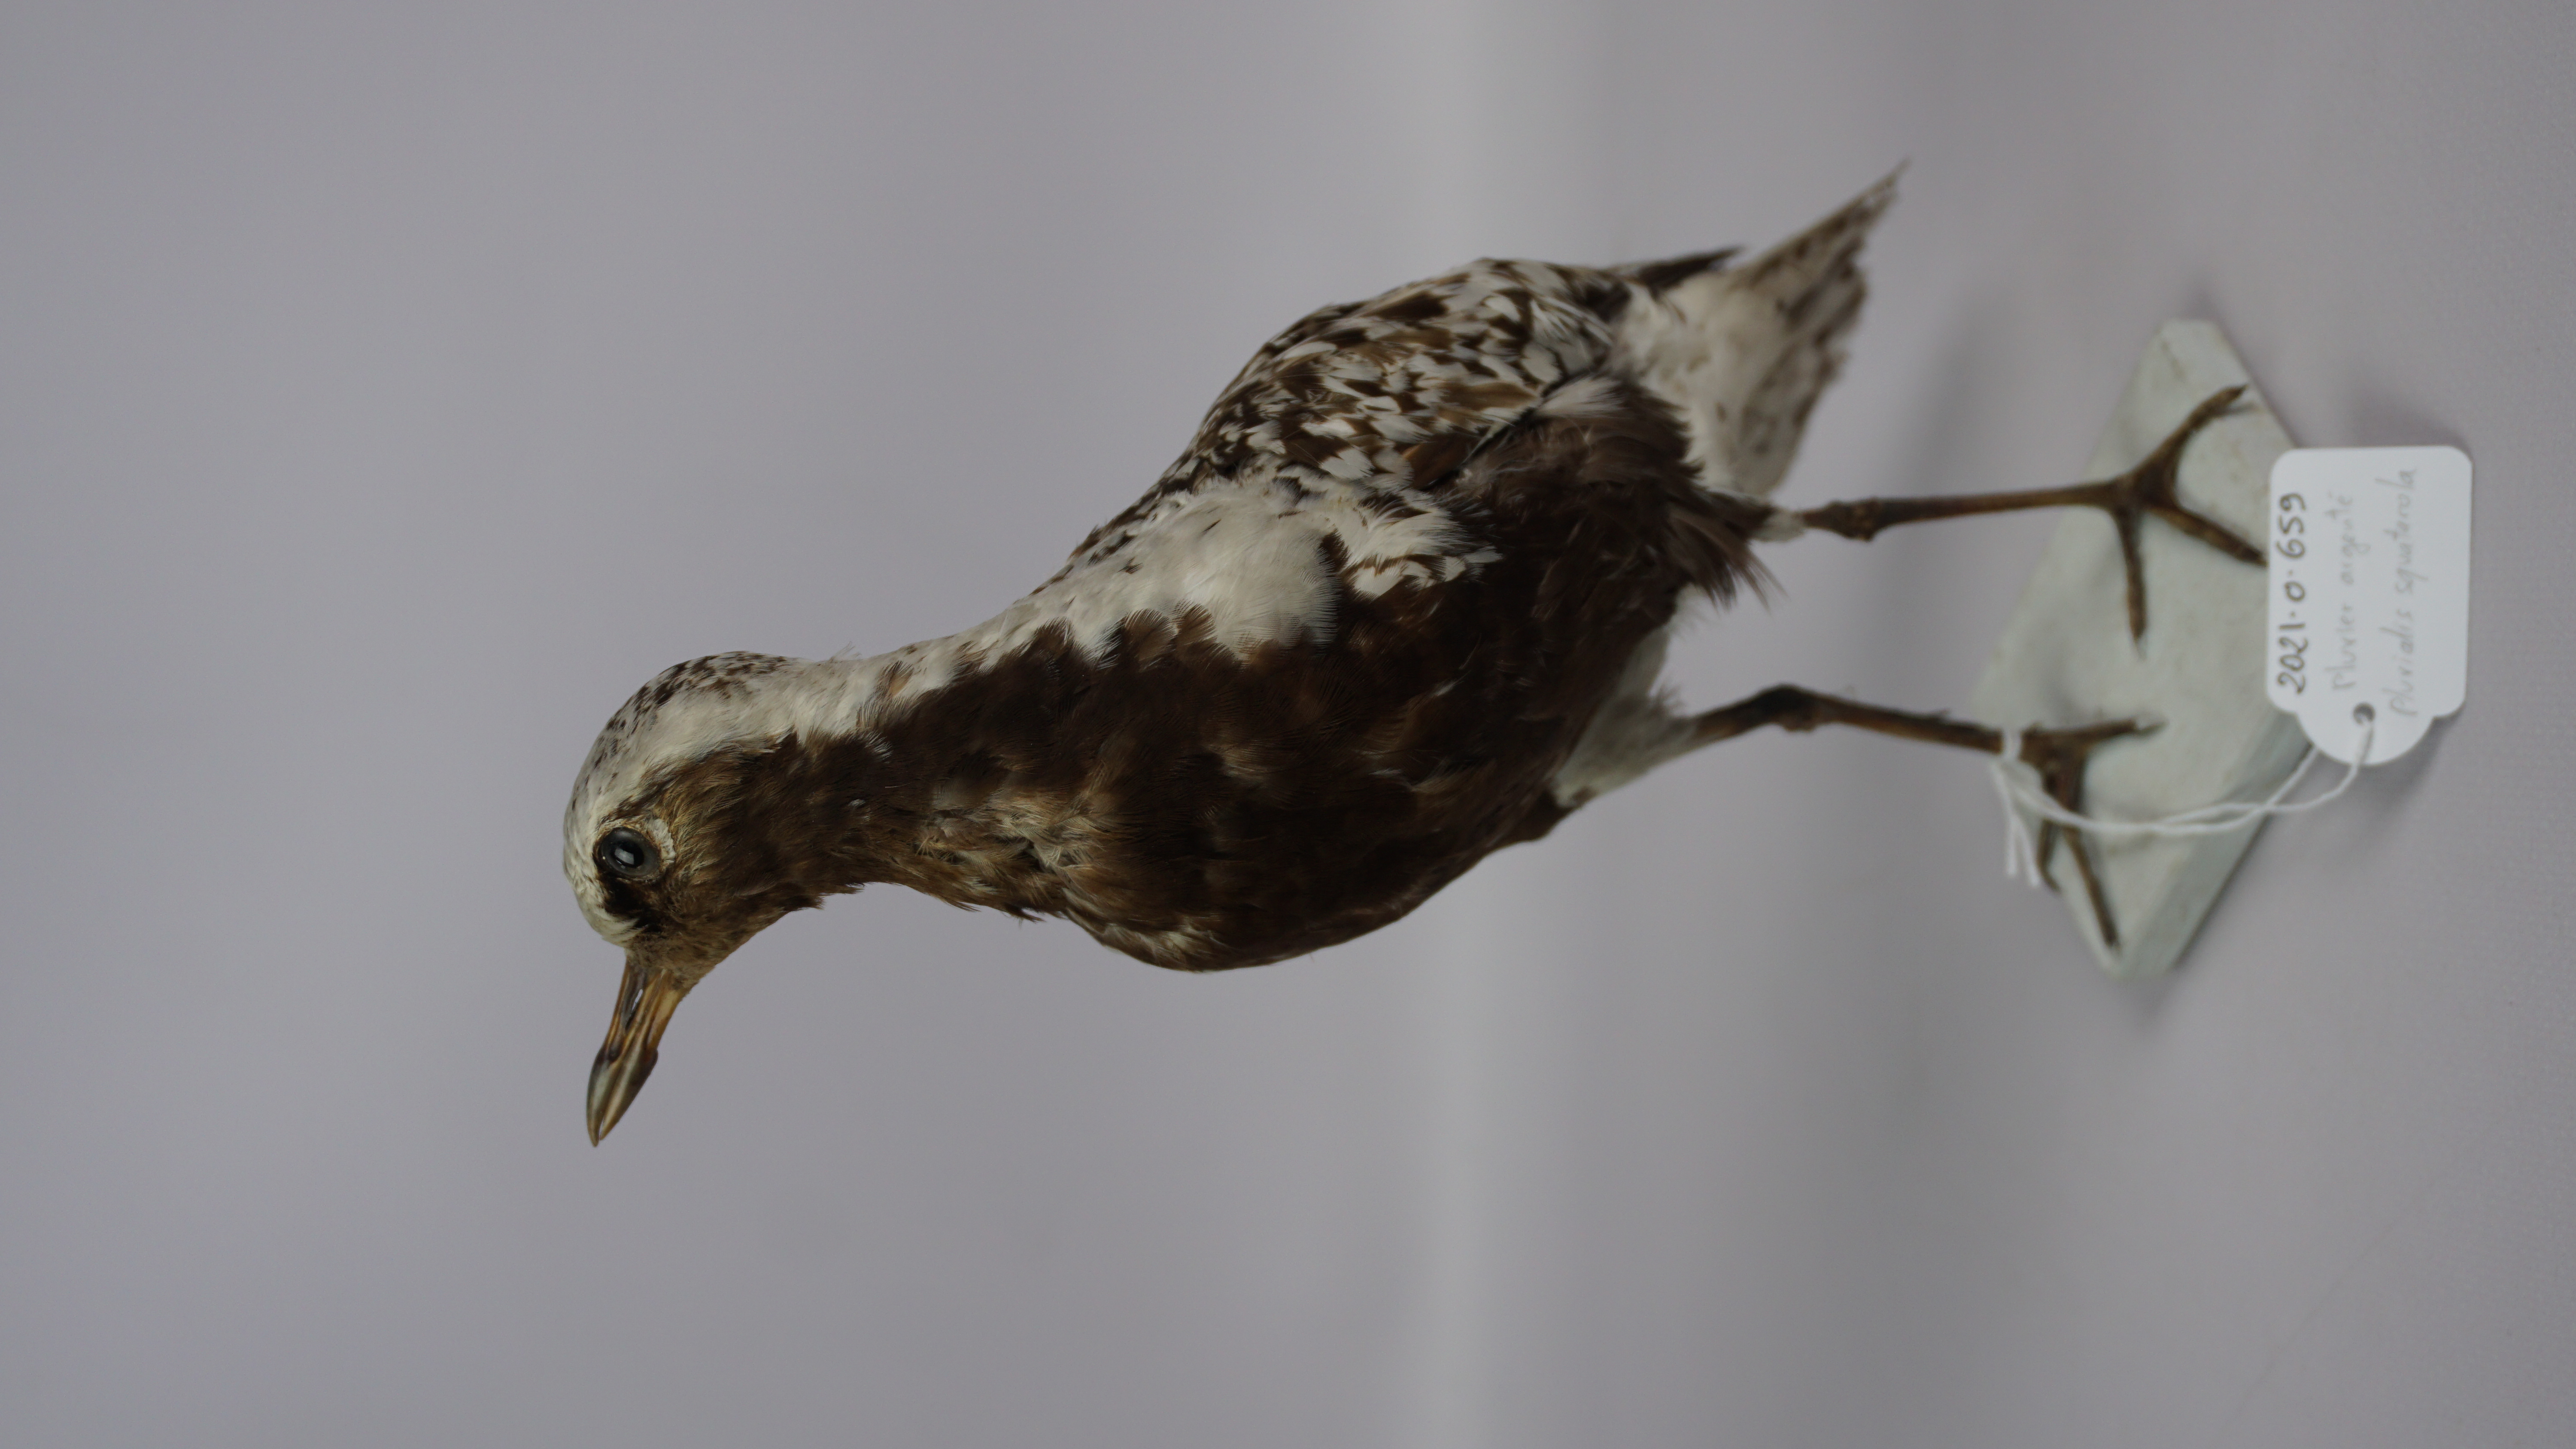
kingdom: Animalia
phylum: Chordata
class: Aves
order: Charadriiformes
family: Charadriidae
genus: Pluvialis
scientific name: Pluvialis squatarola
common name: Grey plover
